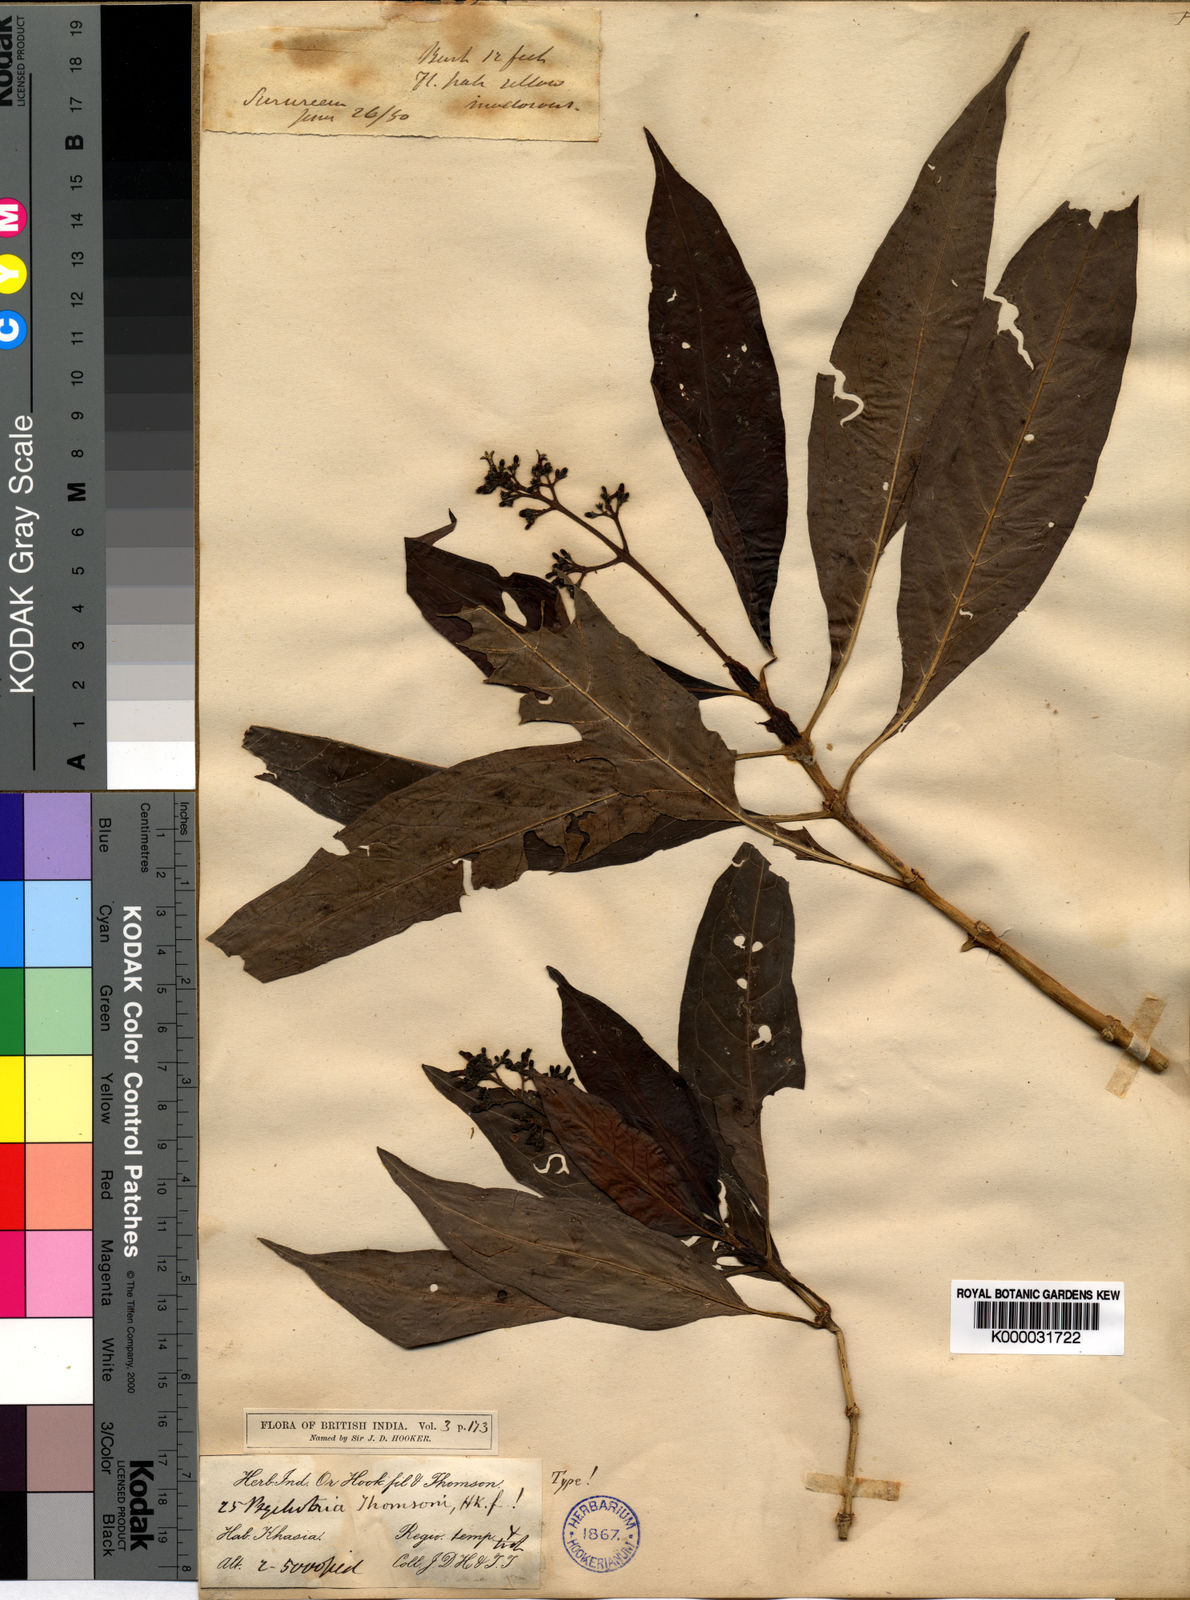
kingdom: Plantae
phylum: Tracheophyta
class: Magnoliopsida
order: Gentianales
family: Rubiaceae
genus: Psychotria
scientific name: Psychotria thomsonii
